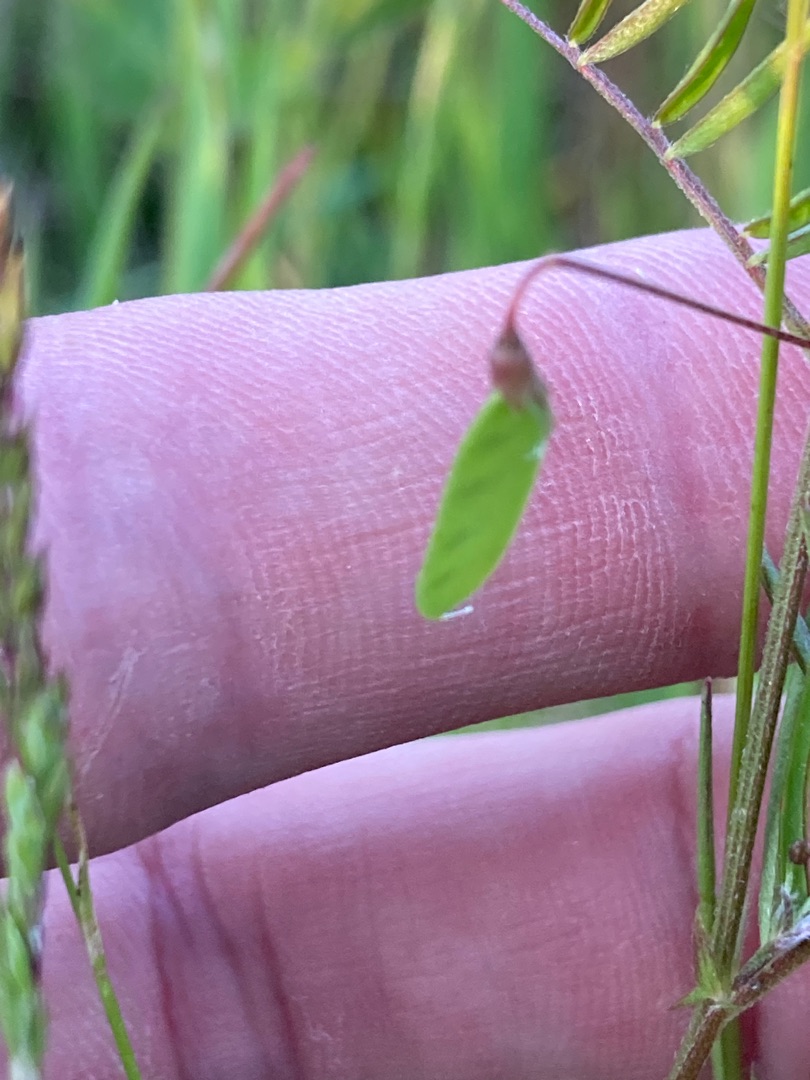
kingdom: Plantae
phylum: Tracheophyta
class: Magnoliopsida
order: Fabales
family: Fabaceae
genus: Vicia
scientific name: Vicia tetrasperma
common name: Tadder-vikke
